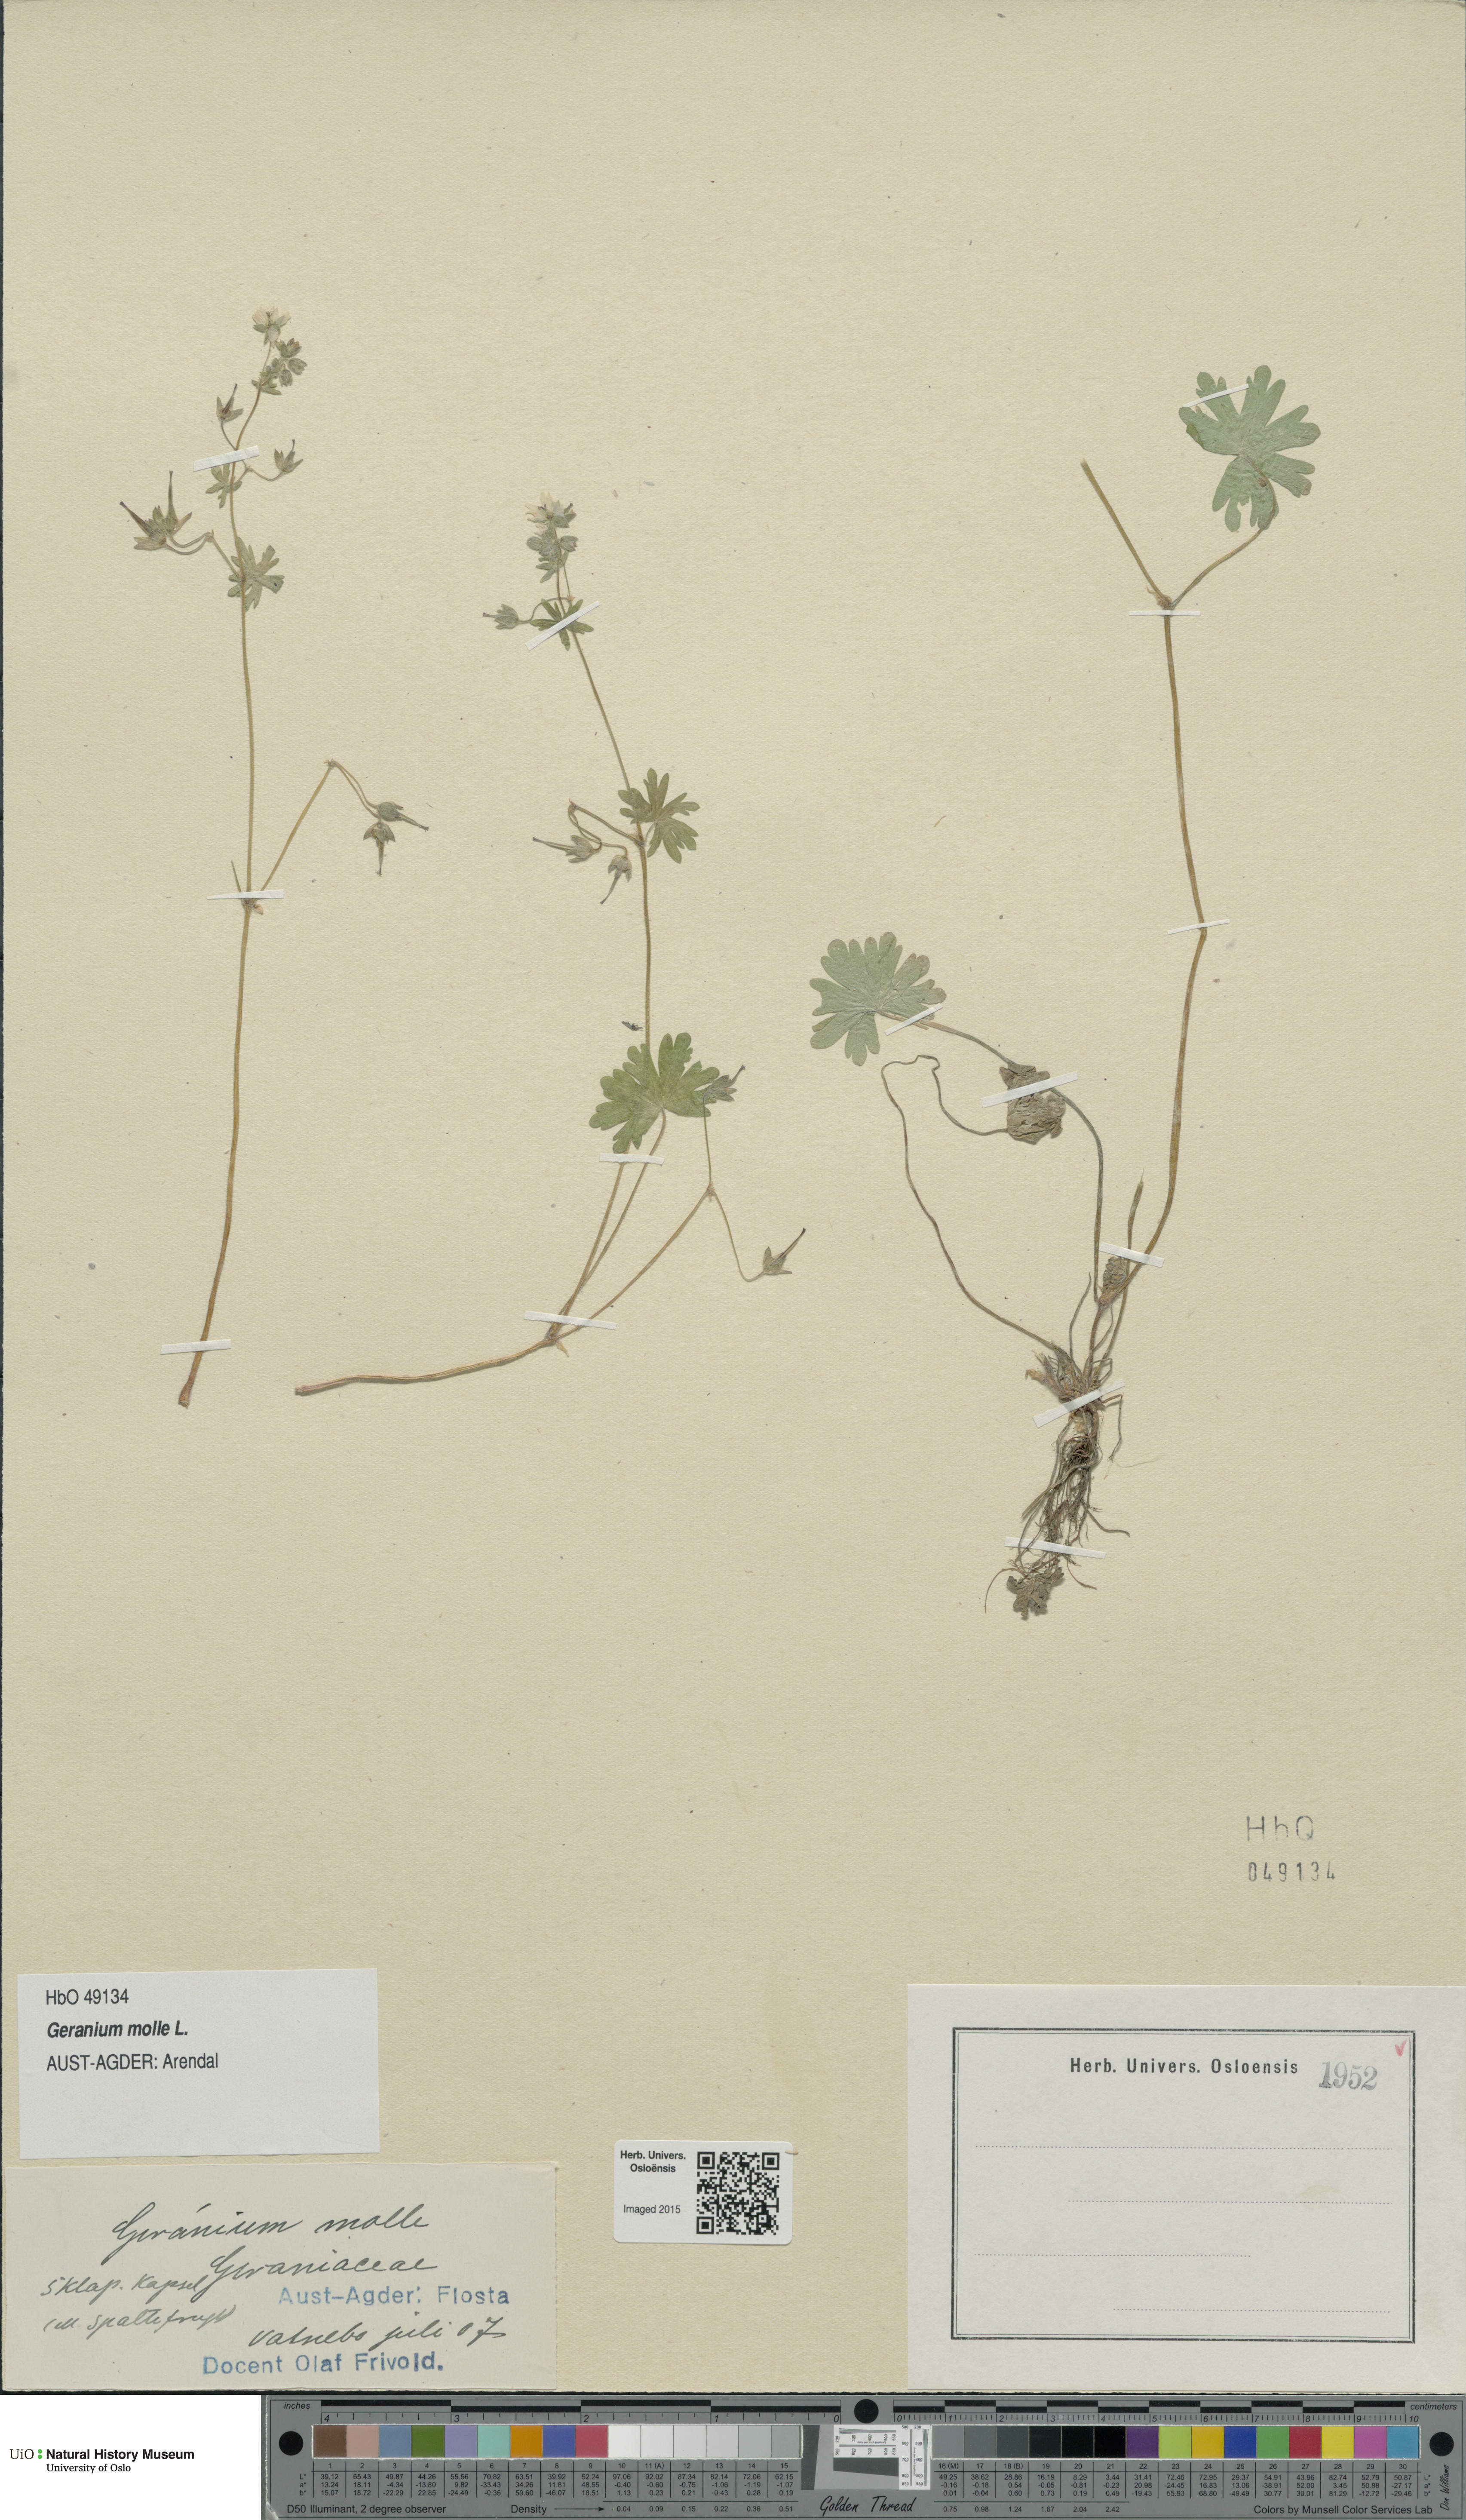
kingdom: Plantae
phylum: Tracheophyta
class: Magnoliopsida
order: Geraniales
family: Geraniaceae
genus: Geranium
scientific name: Geranium molle
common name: Dove's-foot crane's-bill
